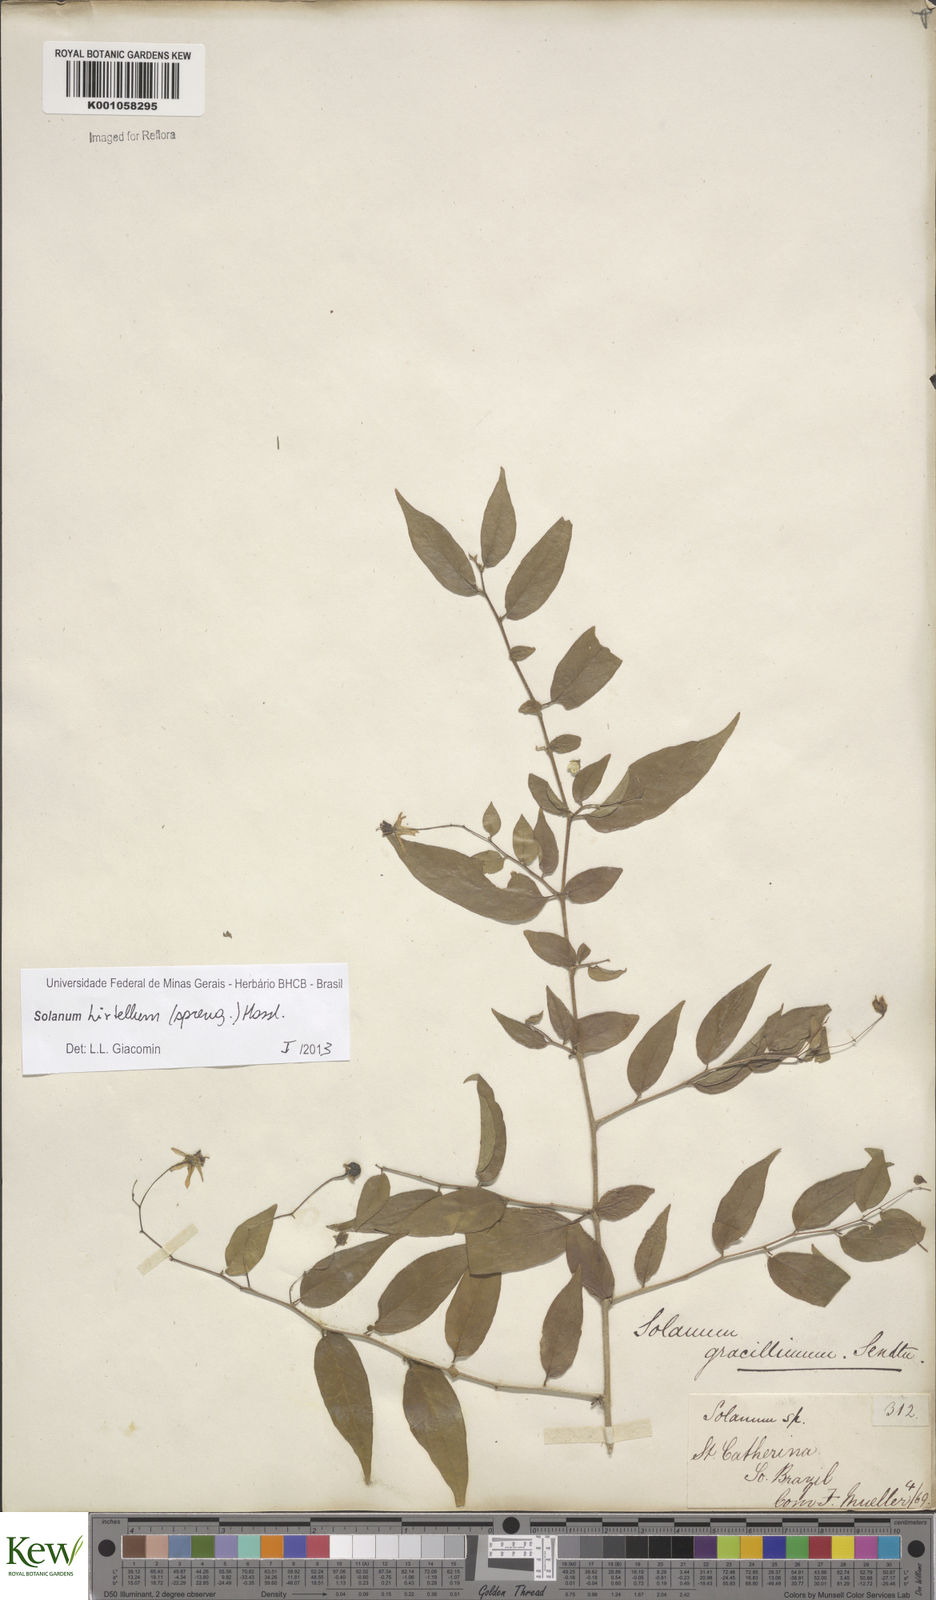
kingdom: Plantae
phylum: Tracheophyta
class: Magnoliopsida
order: Solanales
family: Solanaceae
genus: Solanum
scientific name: Solanum hirtellum
